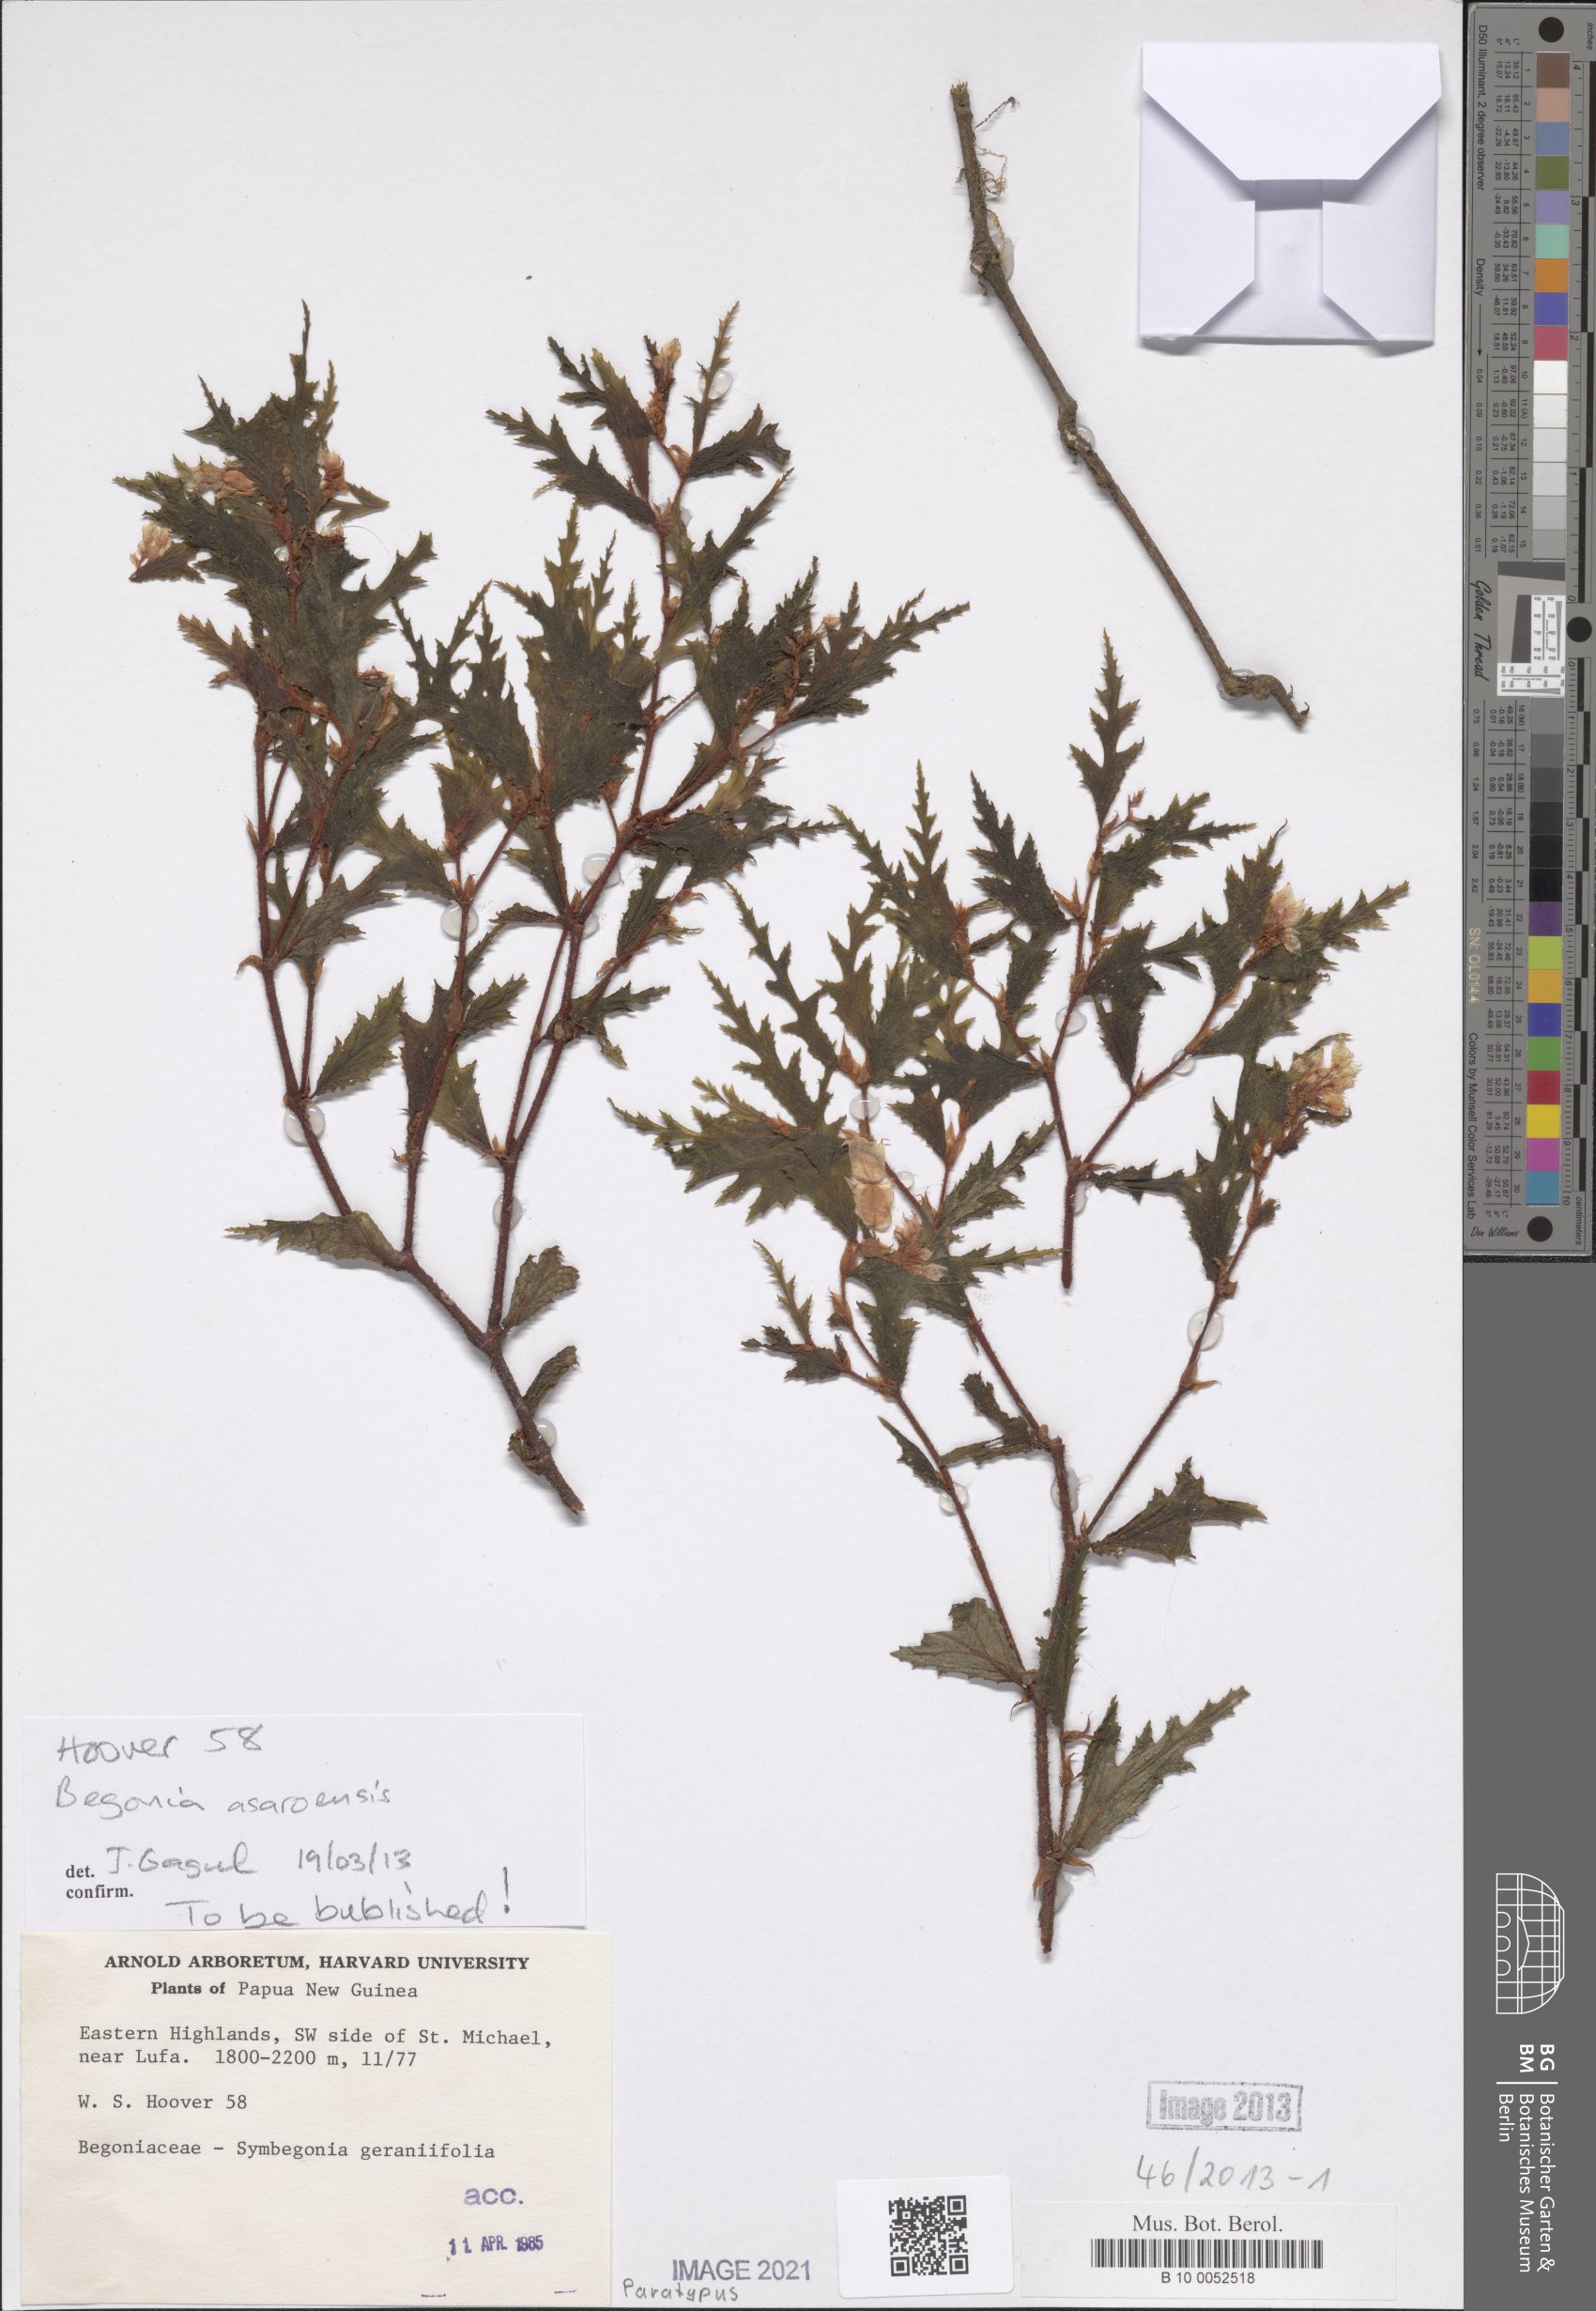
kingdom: Plantae
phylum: Tracheophyta
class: Magnoliopsida
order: Cucurbitales
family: Begoniaceae
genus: Begonia
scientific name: Begonia asaroensis
